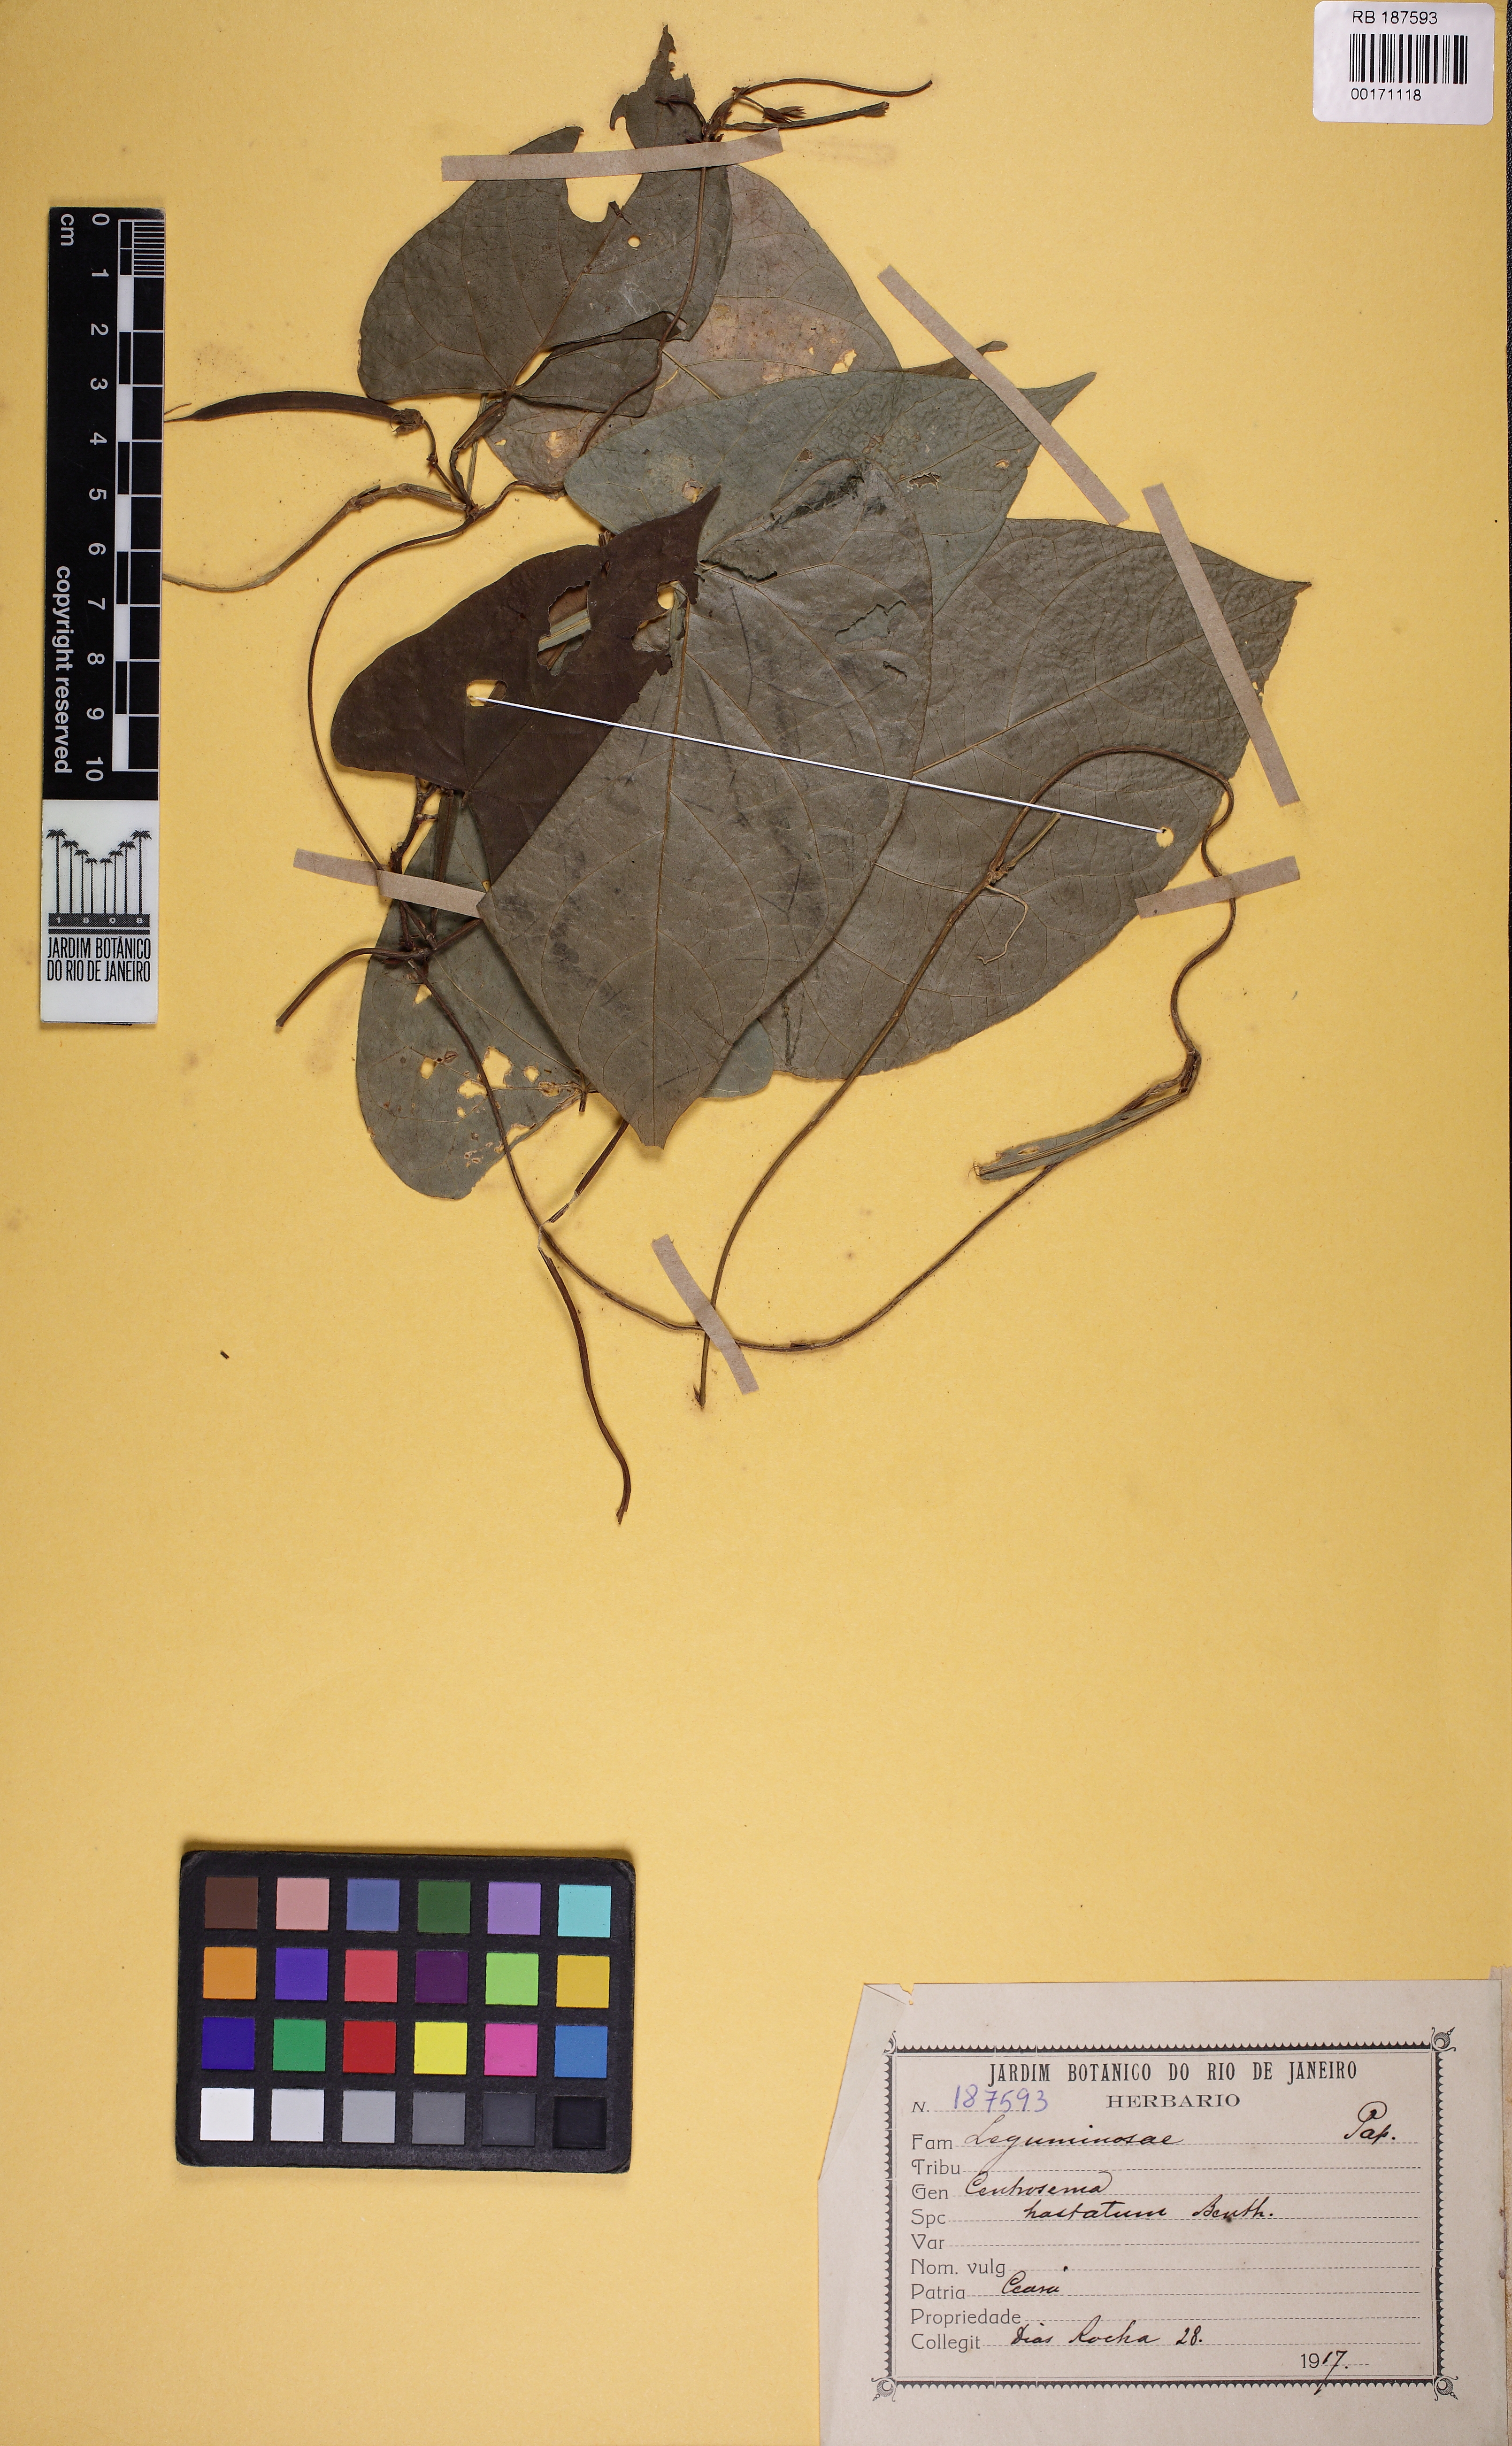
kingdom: Plantae
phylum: Tracheophyta
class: Magnoliopsida
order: Fabales
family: Fabaceae
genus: Centrosema
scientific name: Centrosema sagittatum
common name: Arrowleaf butterfly pea
